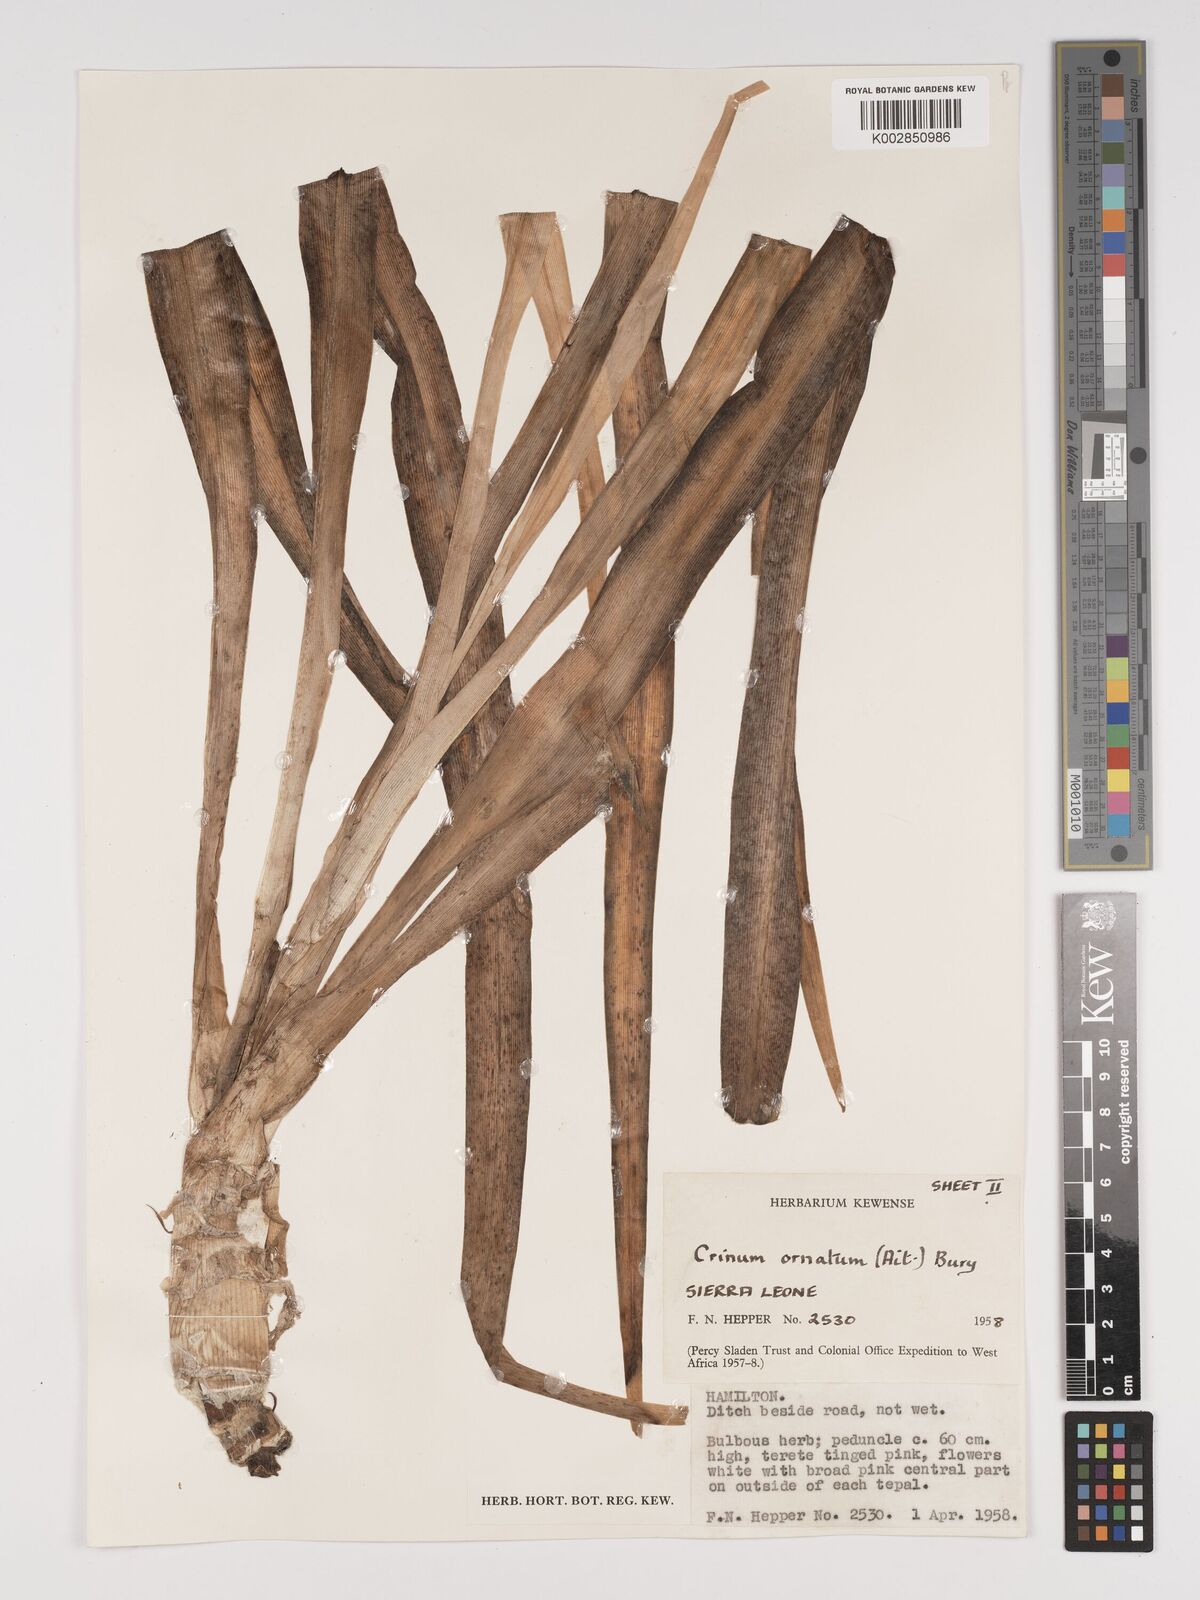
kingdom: Plantae
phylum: Tracheophyta
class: Liliopsida
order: Asparagales
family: Amaryllidaceae
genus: Crinum
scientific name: Crinum ornatum
